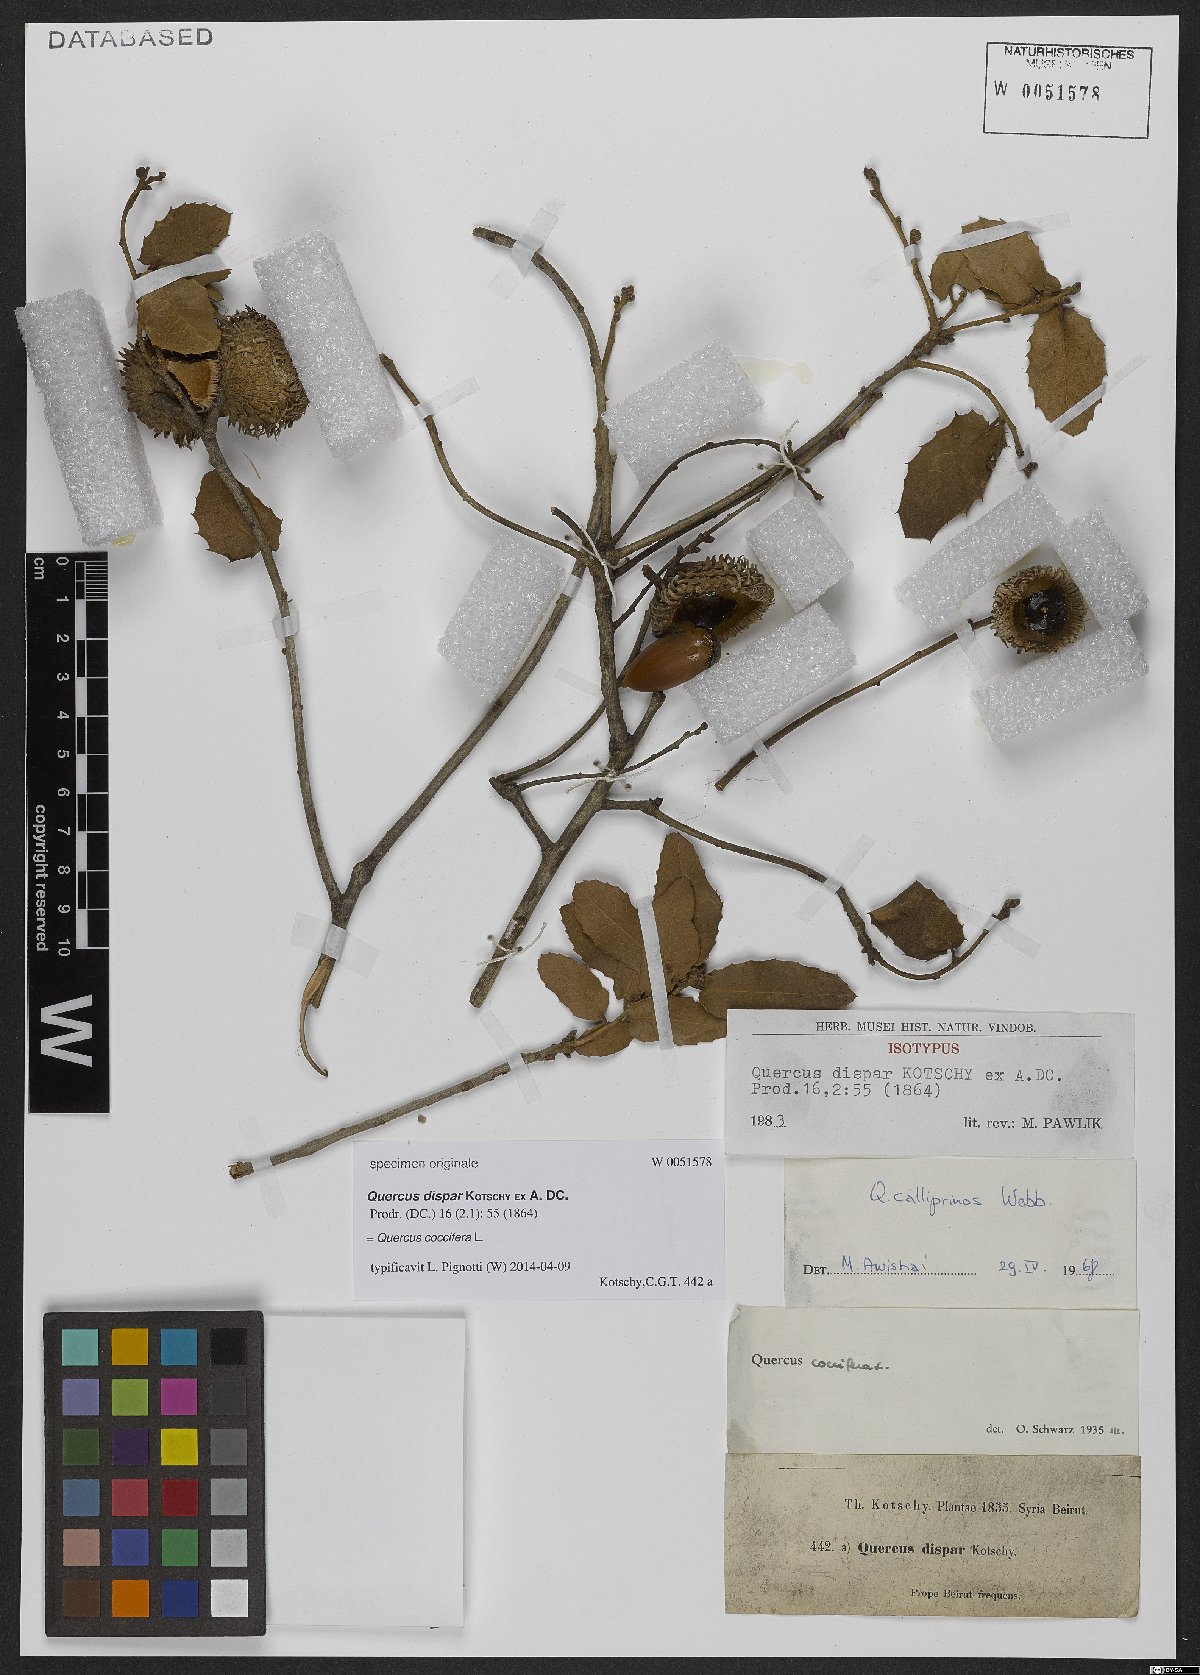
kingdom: Plantae
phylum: Tracheophyta
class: Magnoliopsida
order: Fagales
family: Fagaceae
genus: Quercus
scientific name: Quercus coccifera
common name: Kermes oak
